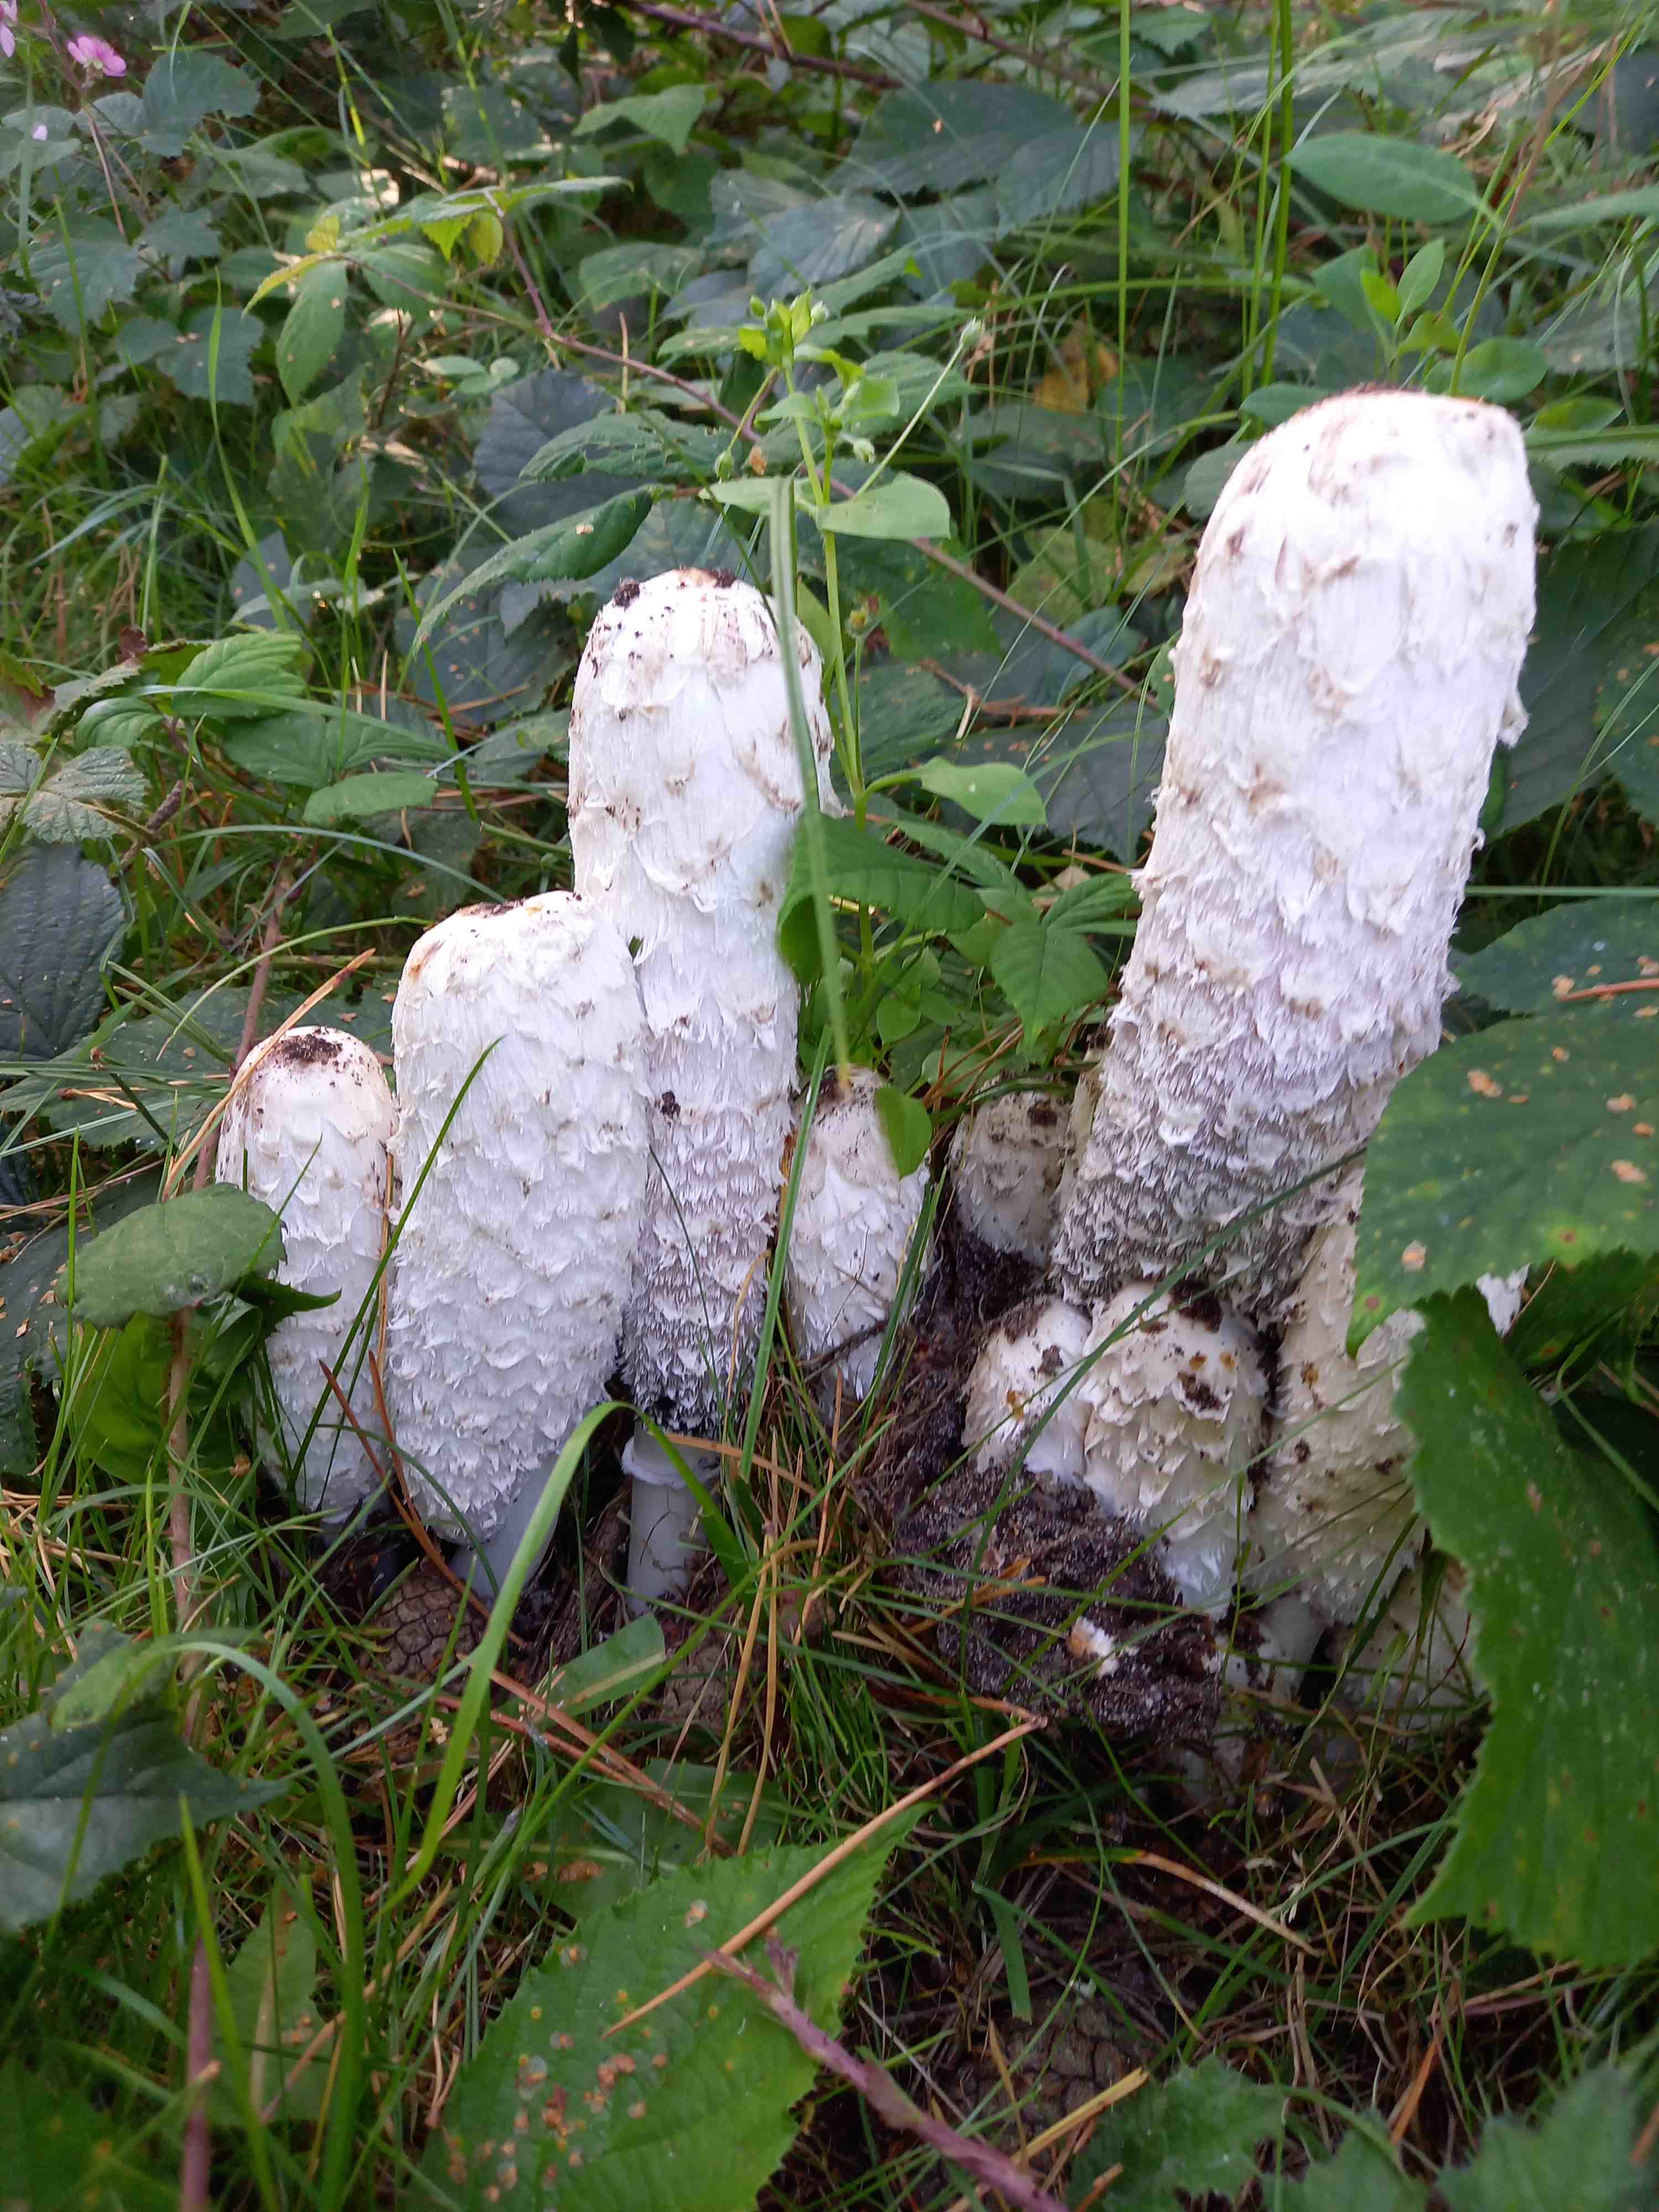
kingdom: Fungi
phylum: Basidiomycota
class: Agaricomycetes
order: Agaricales
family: Agaricaceae
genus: Coprinus
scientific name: Coprinus comatus
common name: stor parykhat
